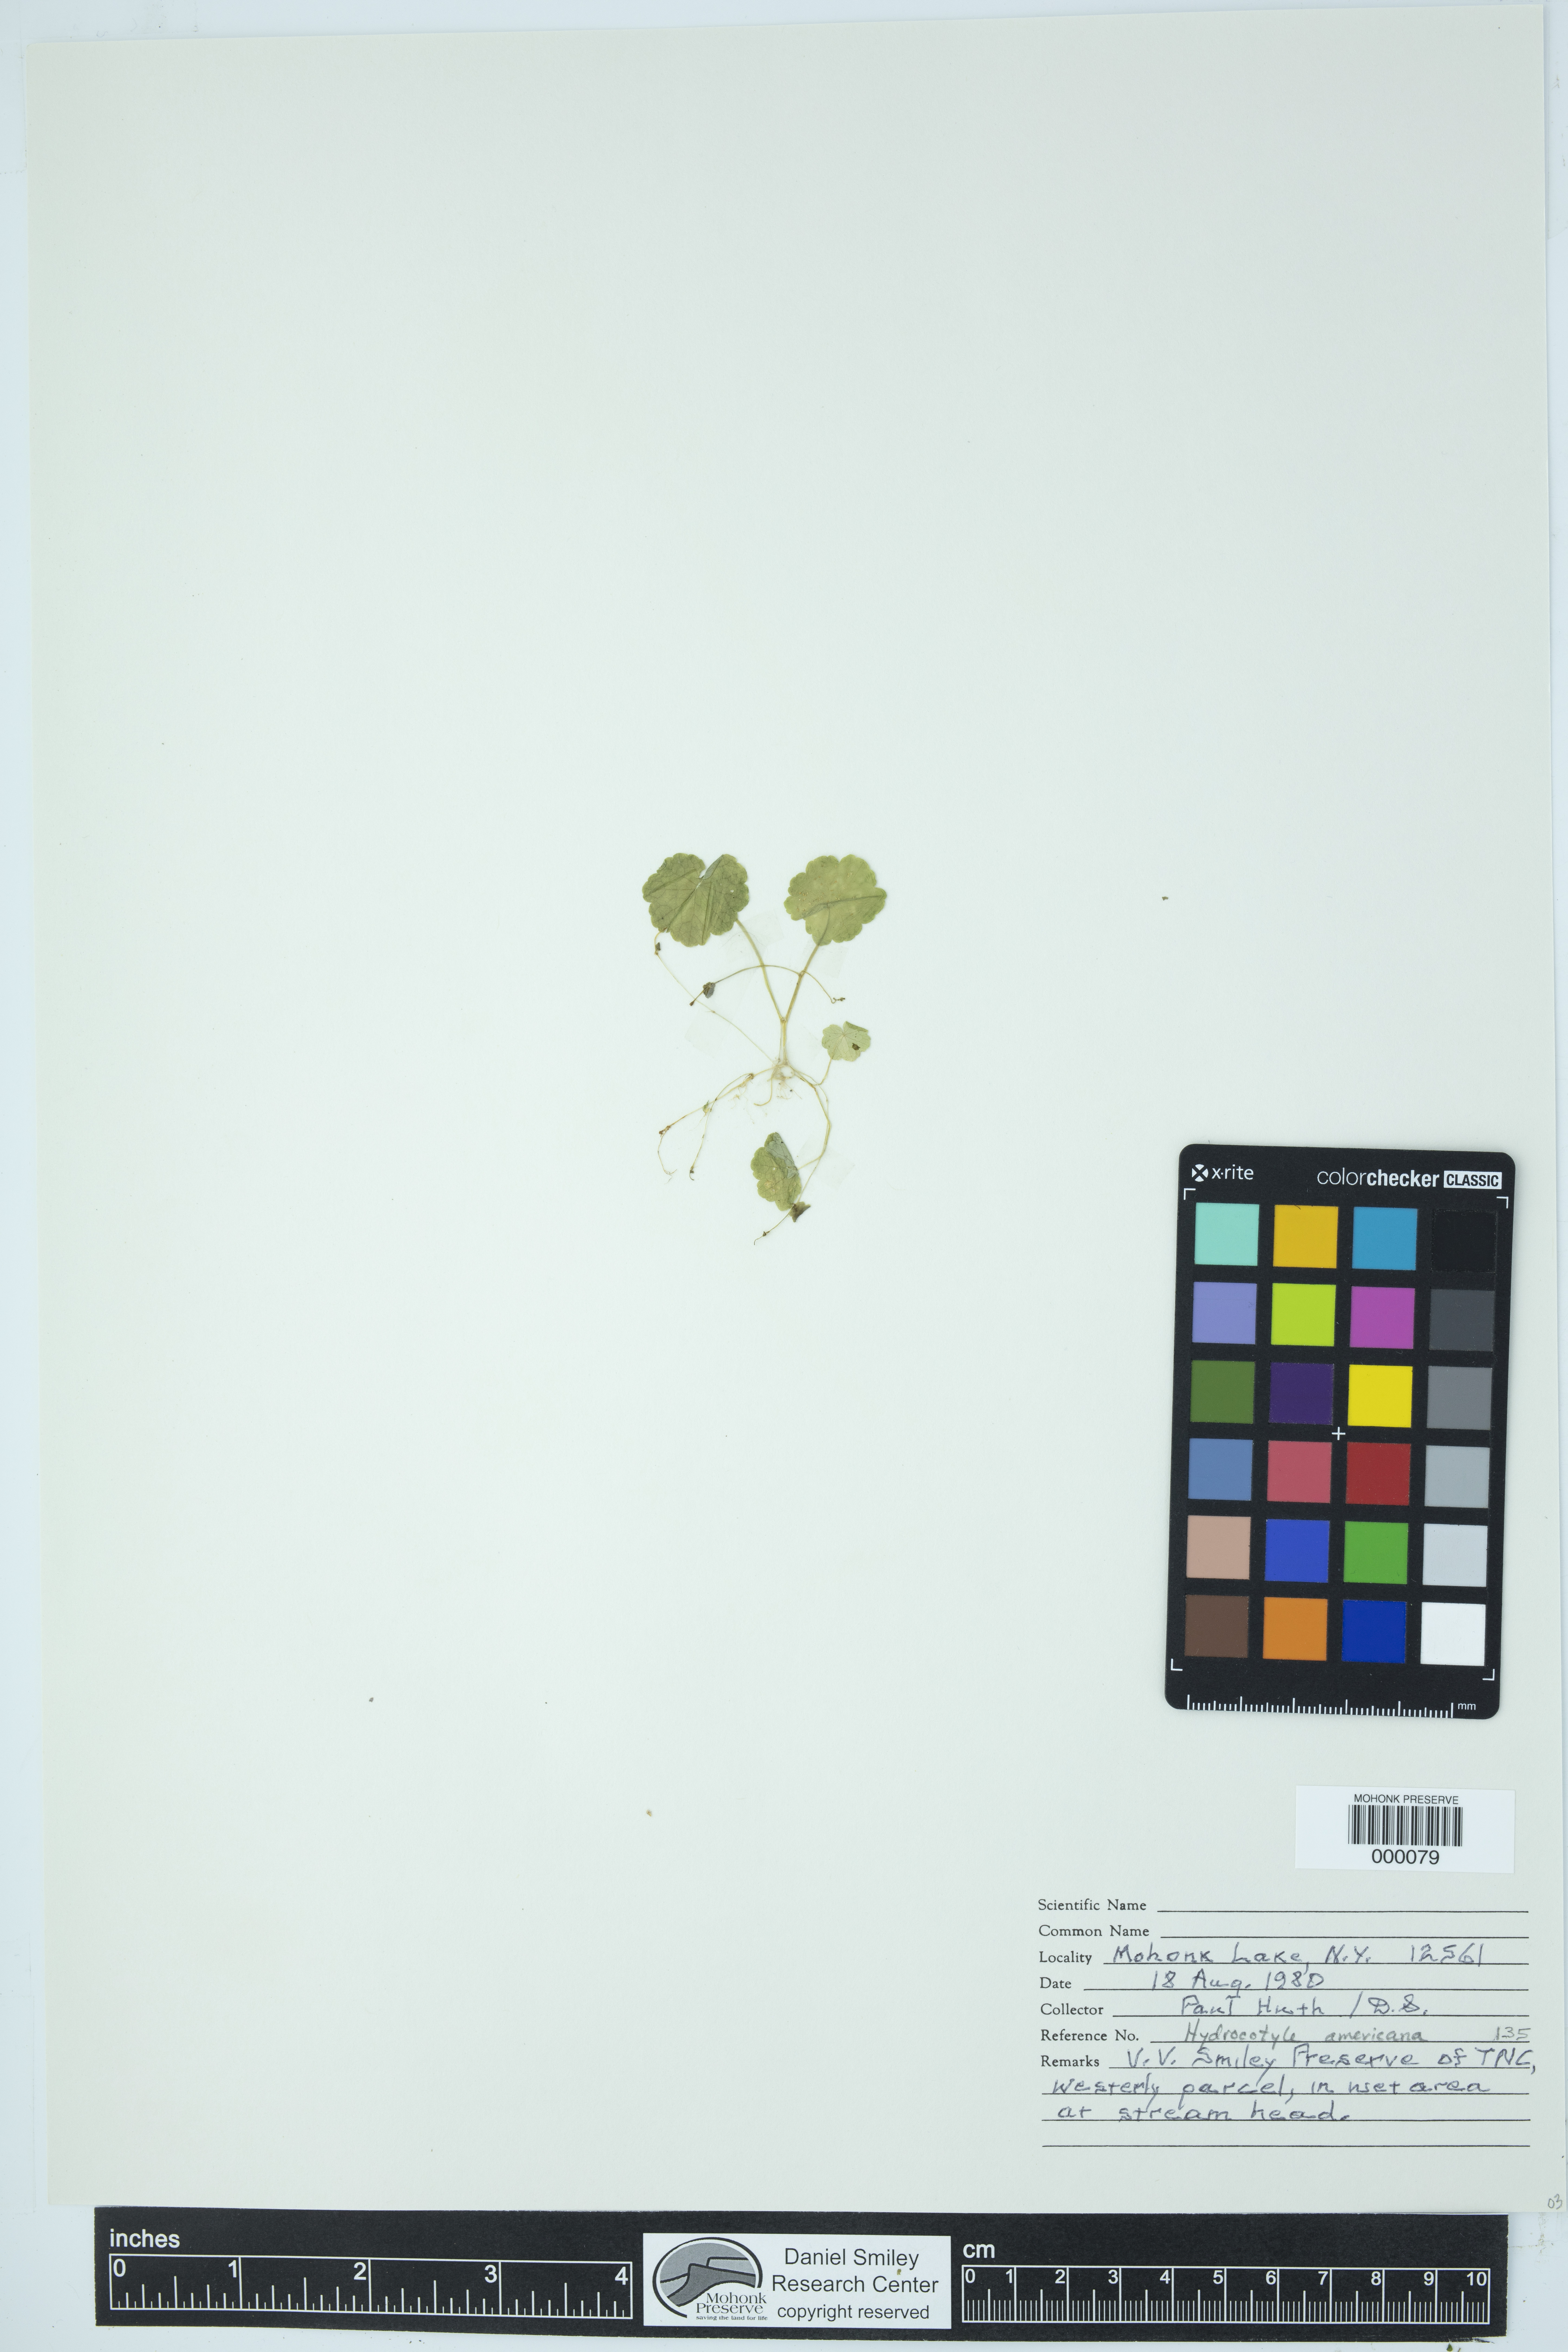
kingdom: Plantae
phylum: Tracheophyta
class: Magnoliopsida
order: Apiales
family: Araliaceae
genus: Hydrocotyle
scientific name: Hydrocotyle americana
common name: American water-pennywort
